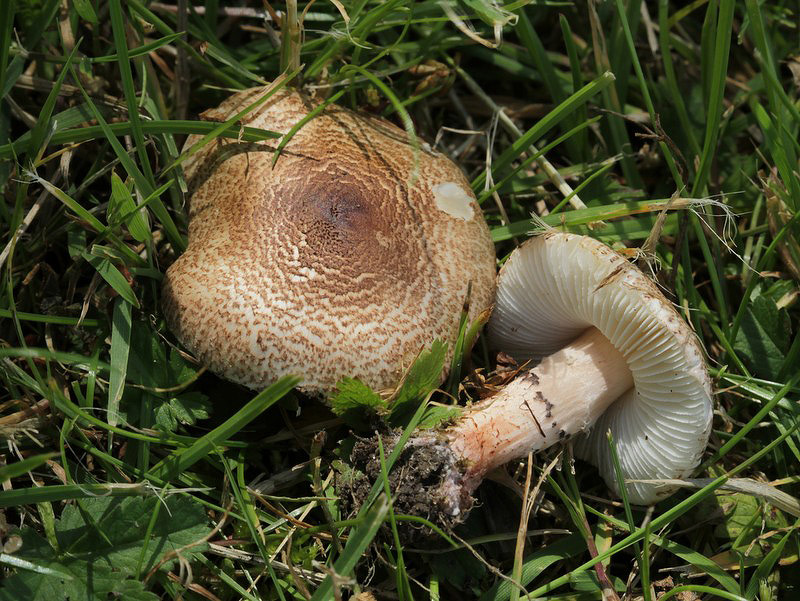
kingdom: Fungi
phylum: Basidiomycota
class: Agaricomycetes
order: Agaricales
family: Agaricaceae
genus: Lepiota
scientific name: Lepiota brunneoincarnata
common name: brunrød parasolhat
